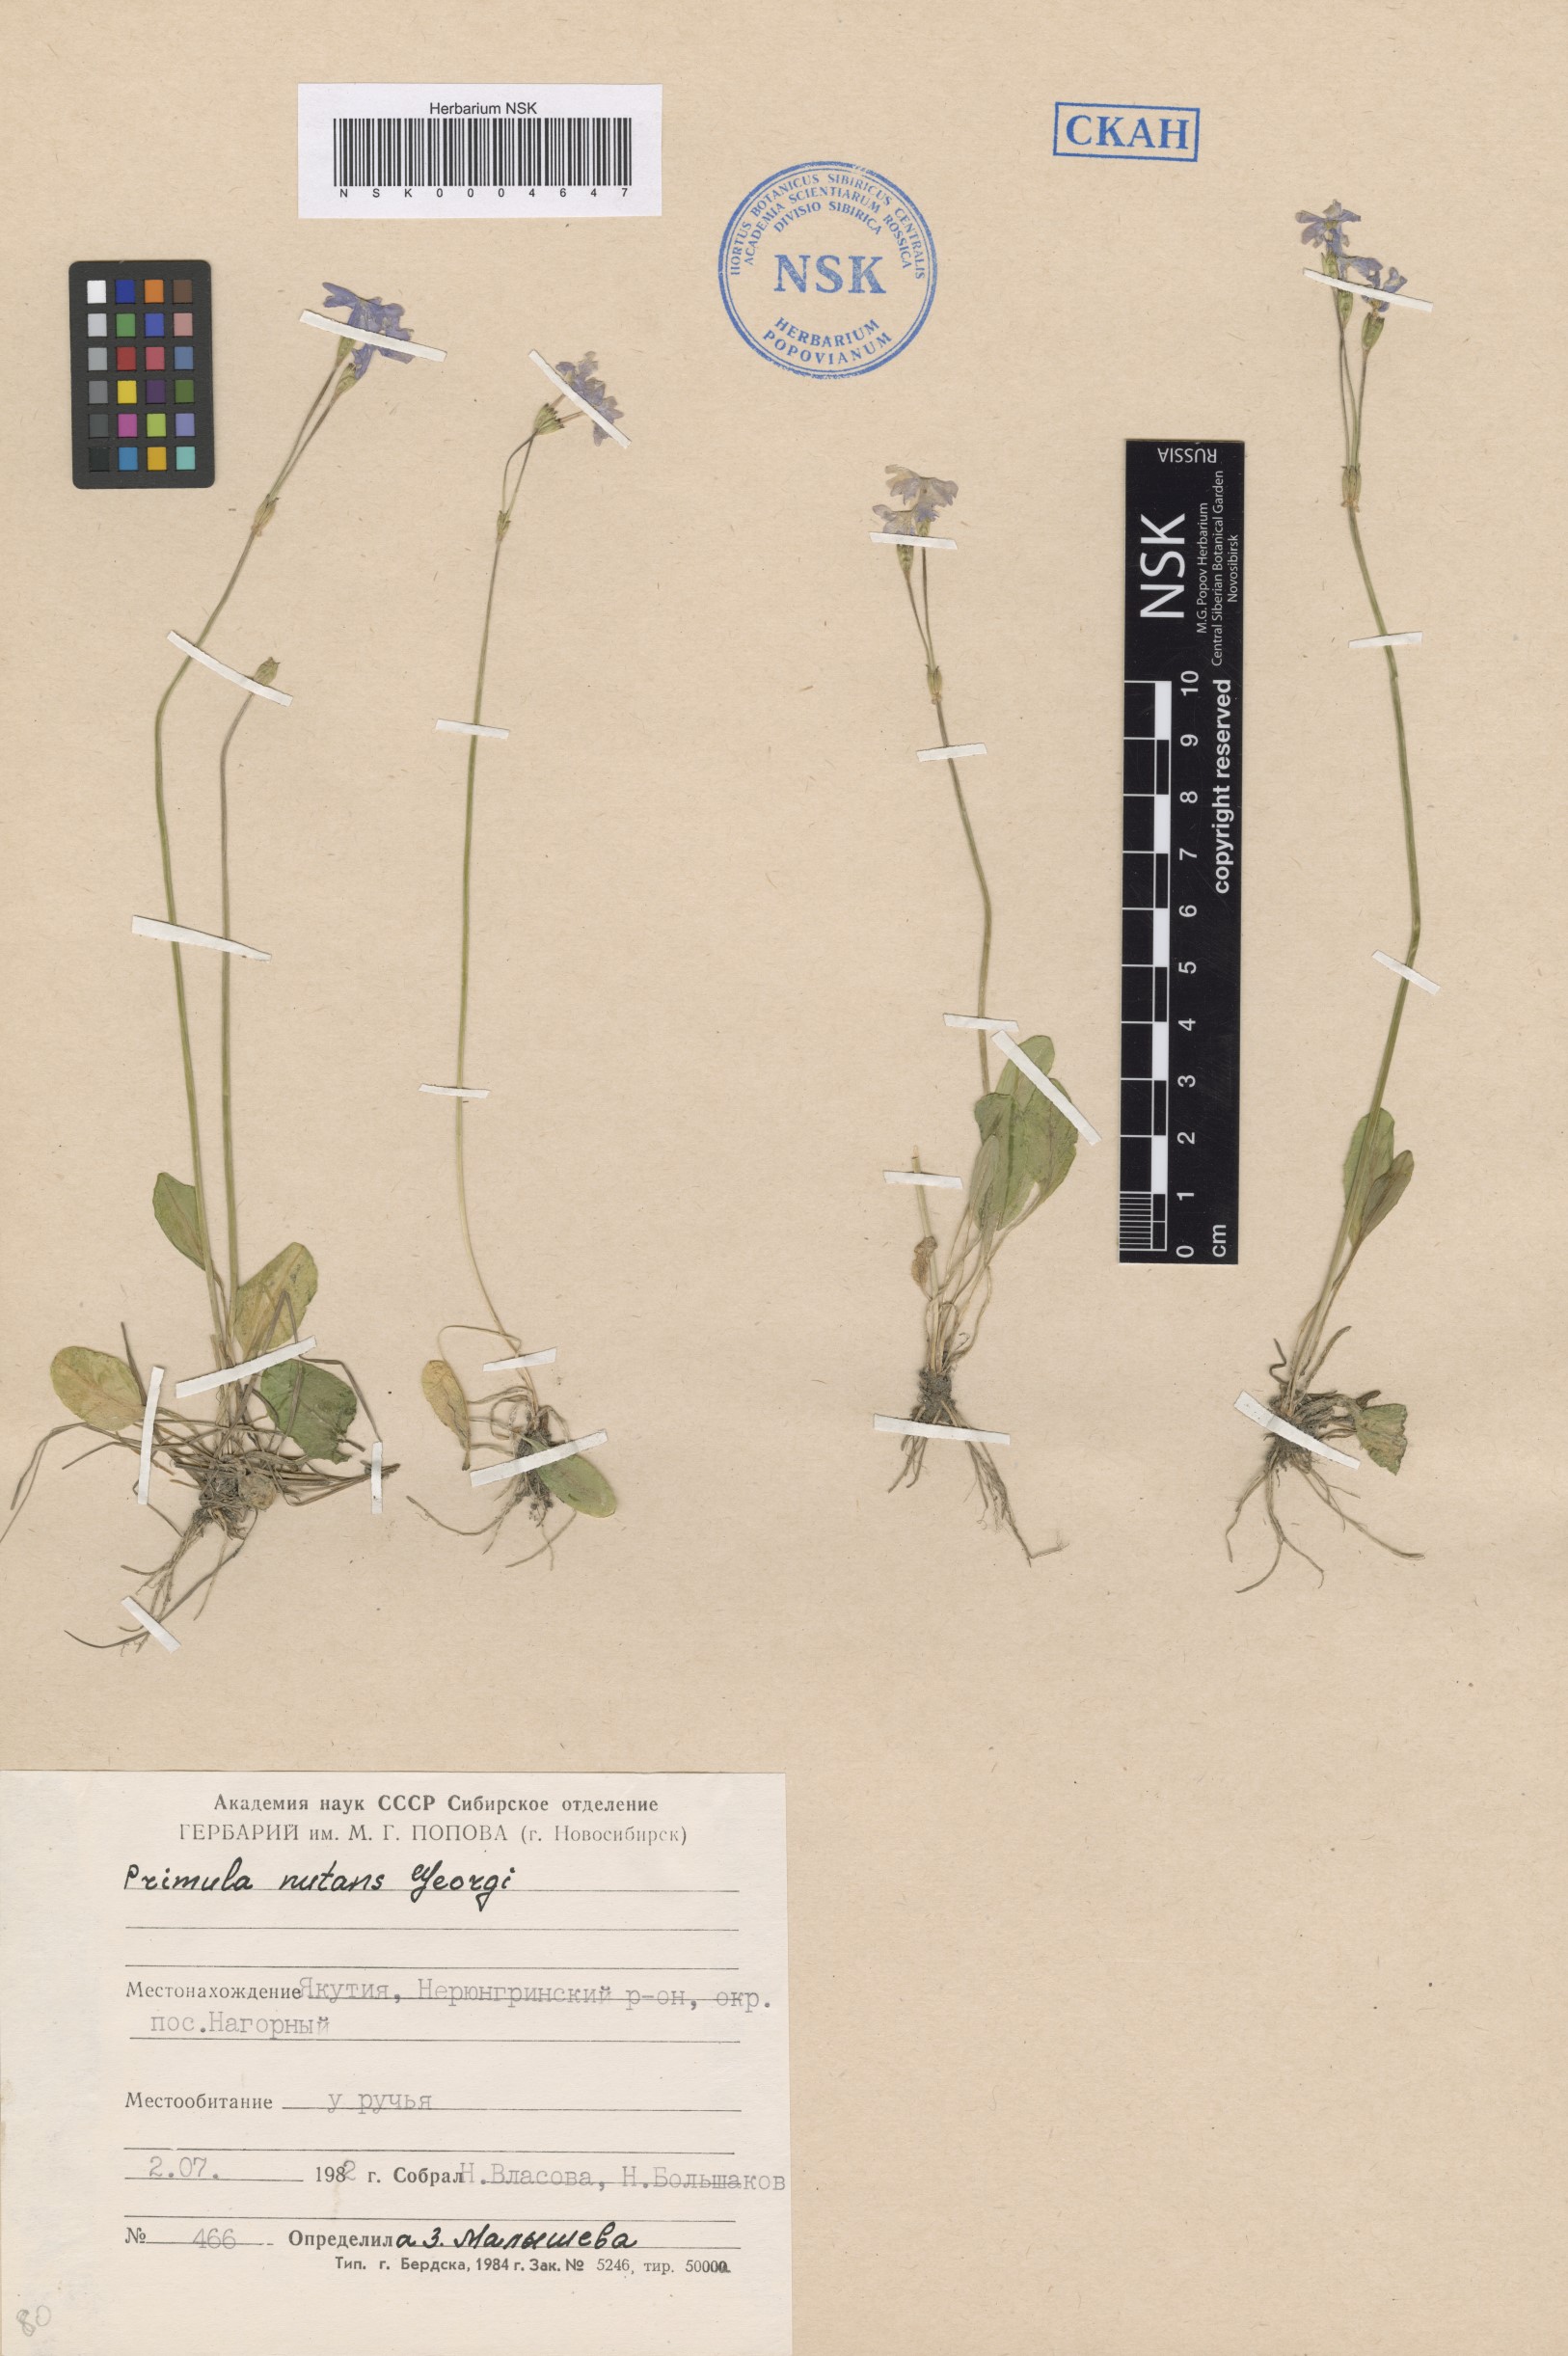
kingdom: Plantae
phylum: Tracheophyta
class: Magnoliopsida
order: Ericales
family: Primulaceae
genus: Primula
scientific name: Primula nutans
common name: Siberian primrose
